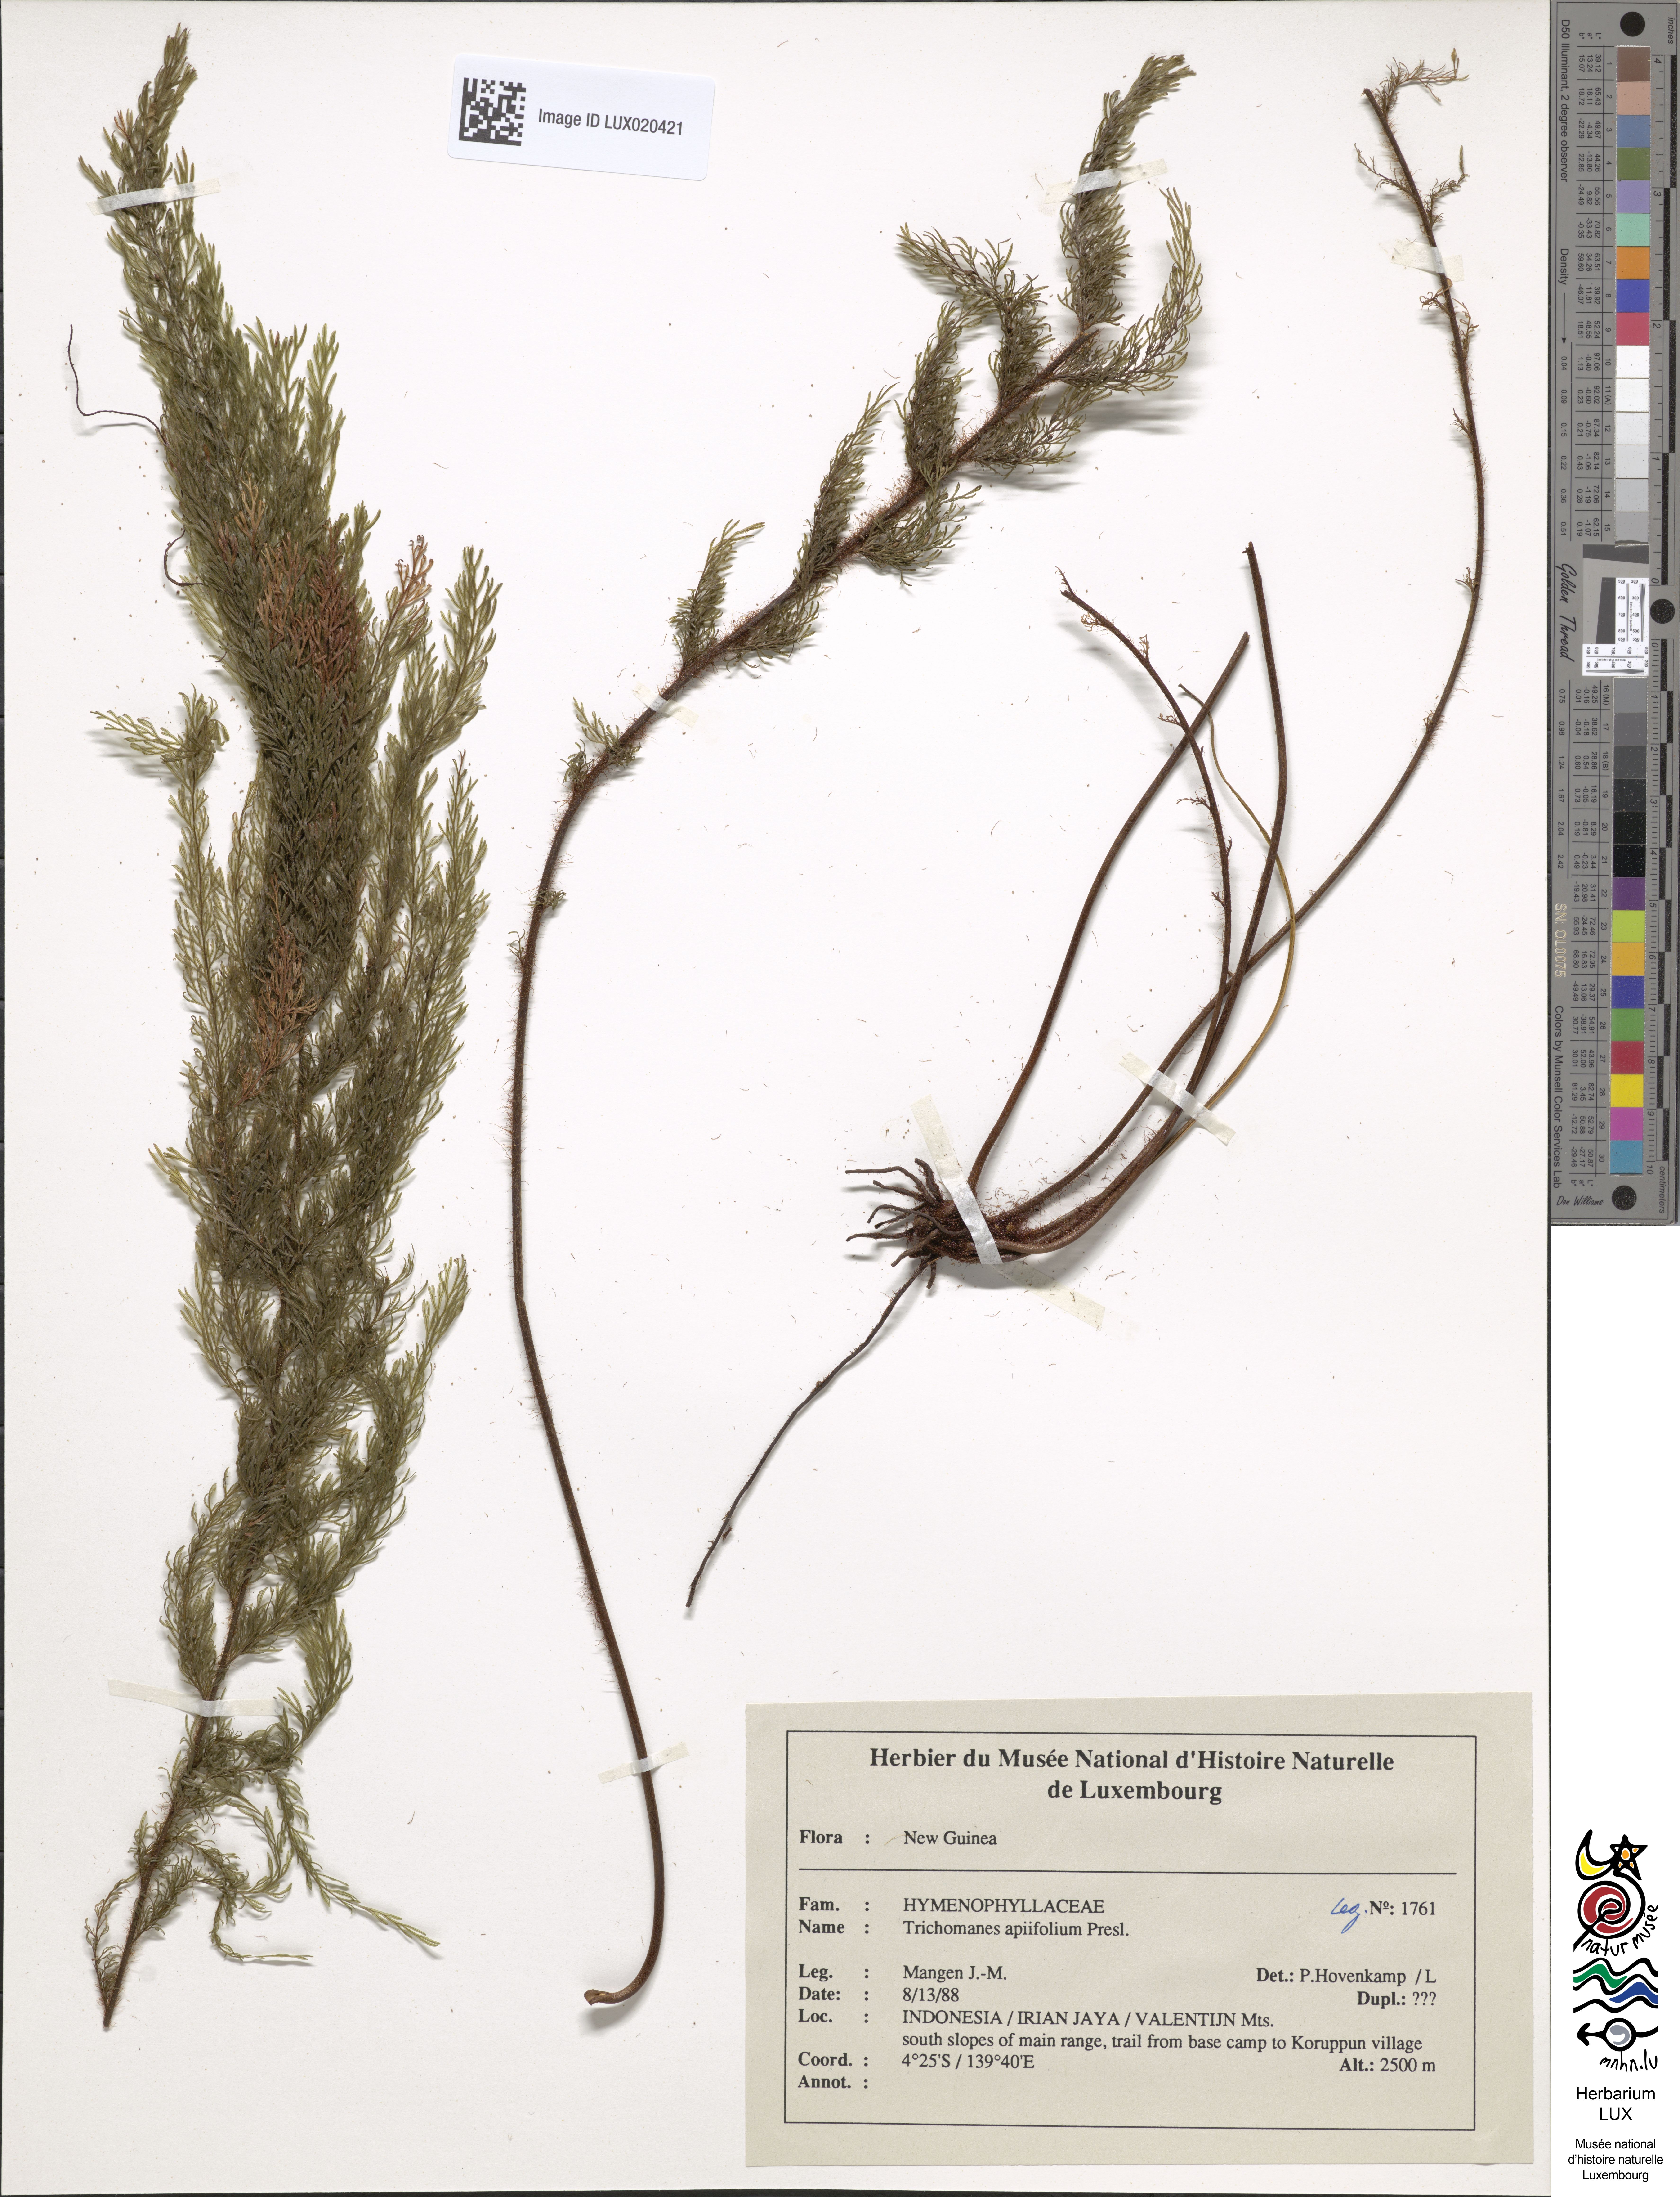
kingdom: Plantae
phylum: Tracheophyta
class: Polypodiopsida
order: Hymenophyllales
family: Hymenophyllaceae
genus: Callistopteris
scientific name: Callistopteris apiifolia
